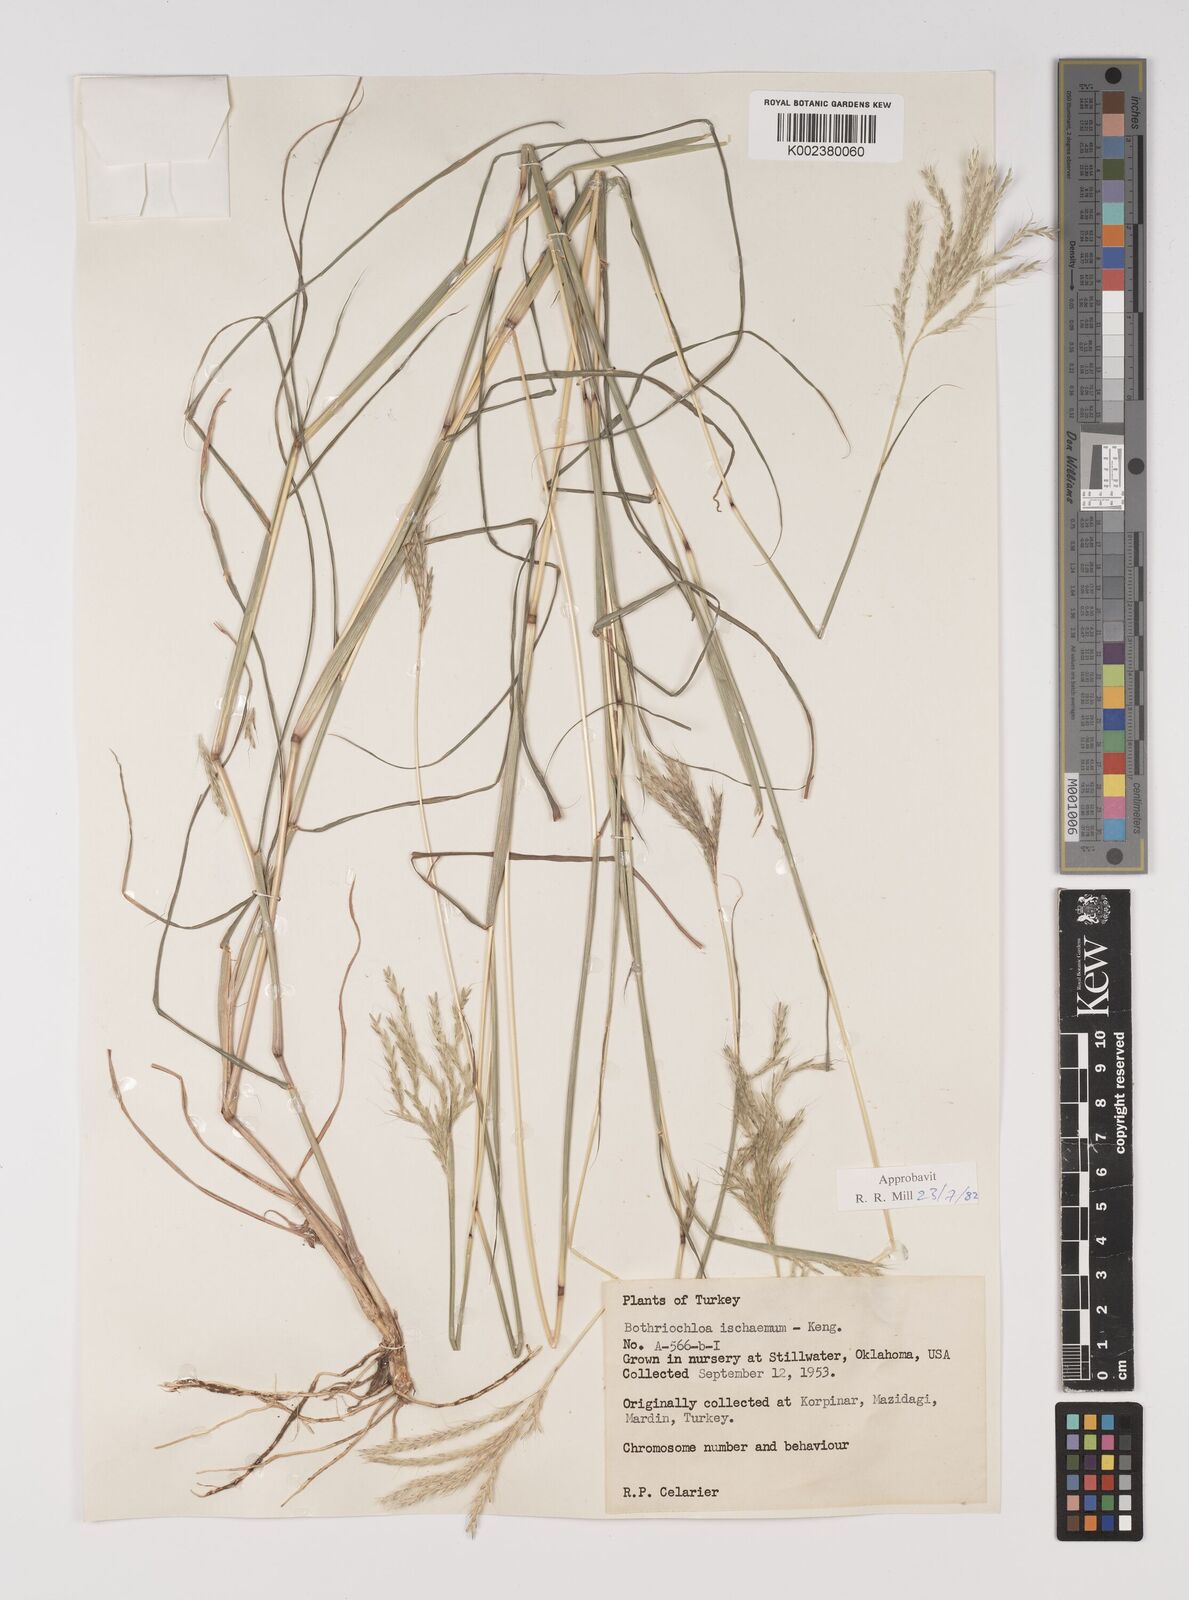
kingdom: Plantae
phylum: Tracheophyta
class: Liliopsida
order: Poales
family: Poaceae
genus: Bothriochloa
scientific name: Bothriochloa ischaemum
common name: Yellow bluestem
